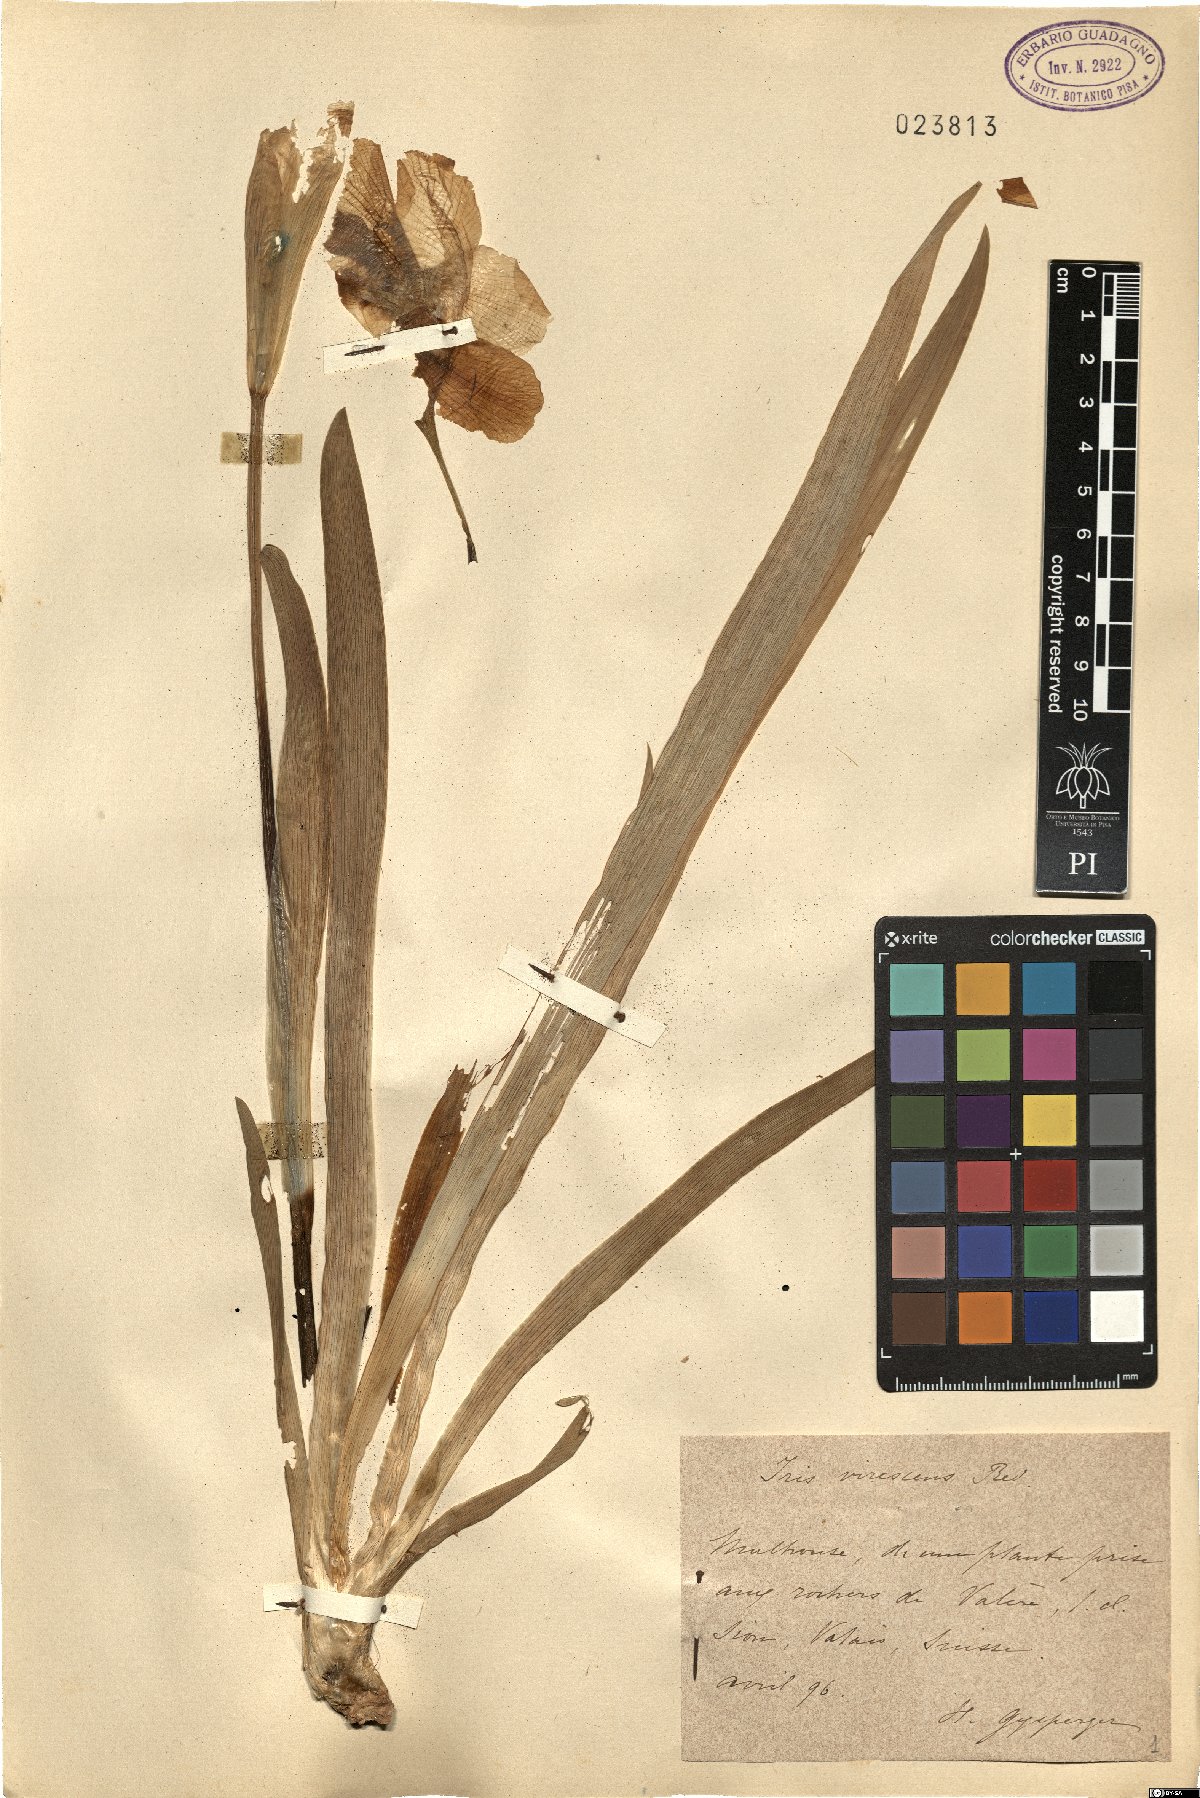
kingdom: Plantae
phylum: Tracheophyta
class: Liliopsida
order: Asparagales
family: Iridaceae
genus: Iris
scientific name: Iris lutescens
